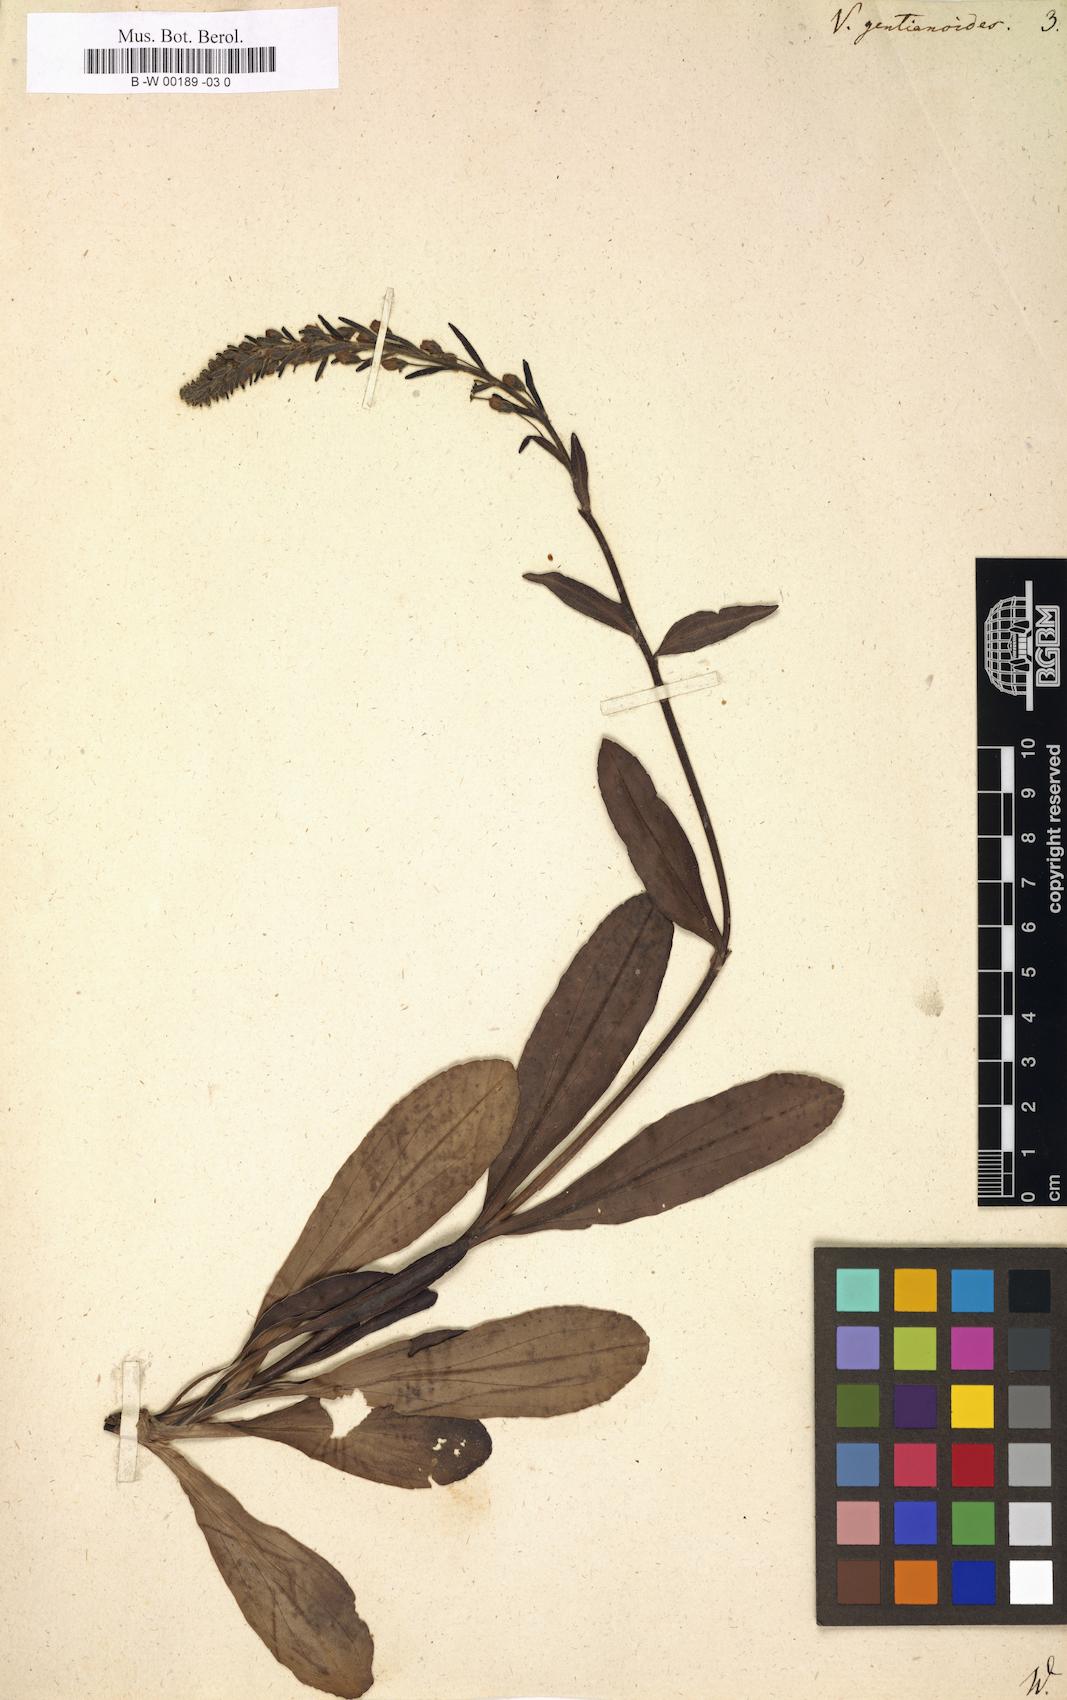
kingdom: Plantae
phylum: Tracheophyta
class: Magnoliopsida
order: Lamiales
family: Plantaginaceae
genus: Veronica
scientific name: Veronica gentianoides
